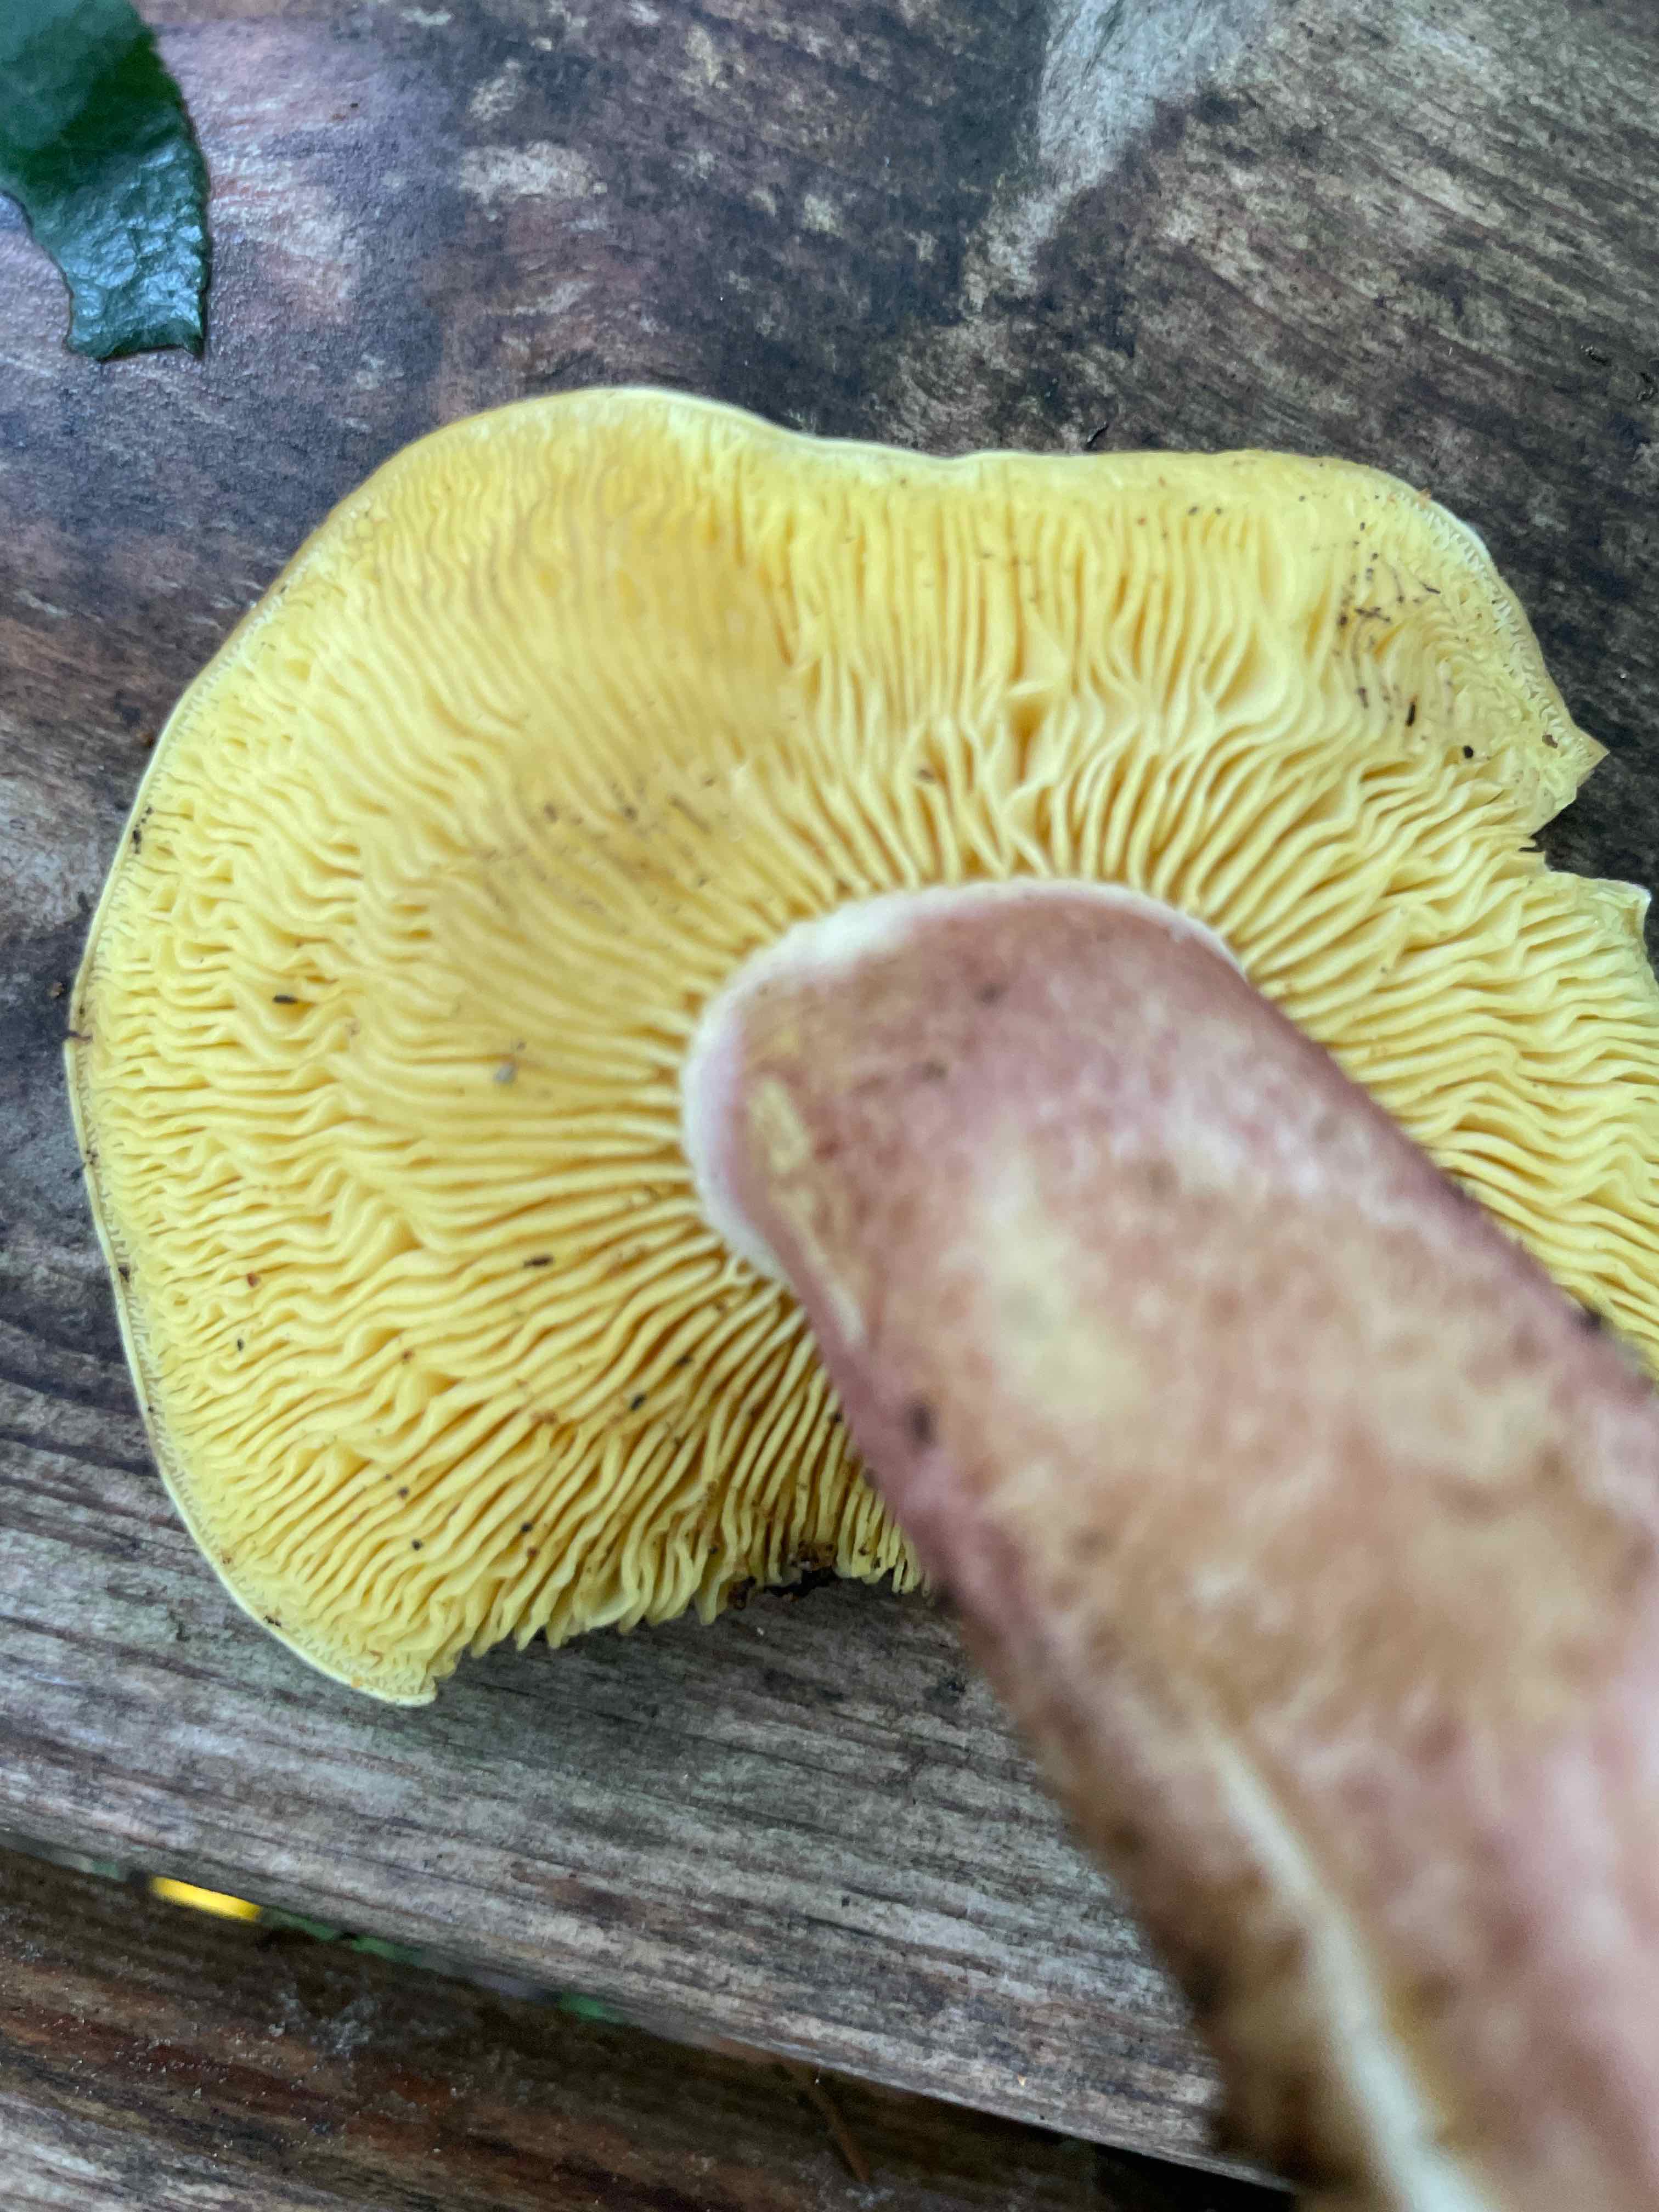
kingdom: Fungi
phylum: Basidiomycota
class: Agaricomycetes
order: Agaricales
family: Tricholomataceae
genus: Tricholomopsis
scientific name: Tricholomopsis rutilans
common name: purpur-væbnerhat
